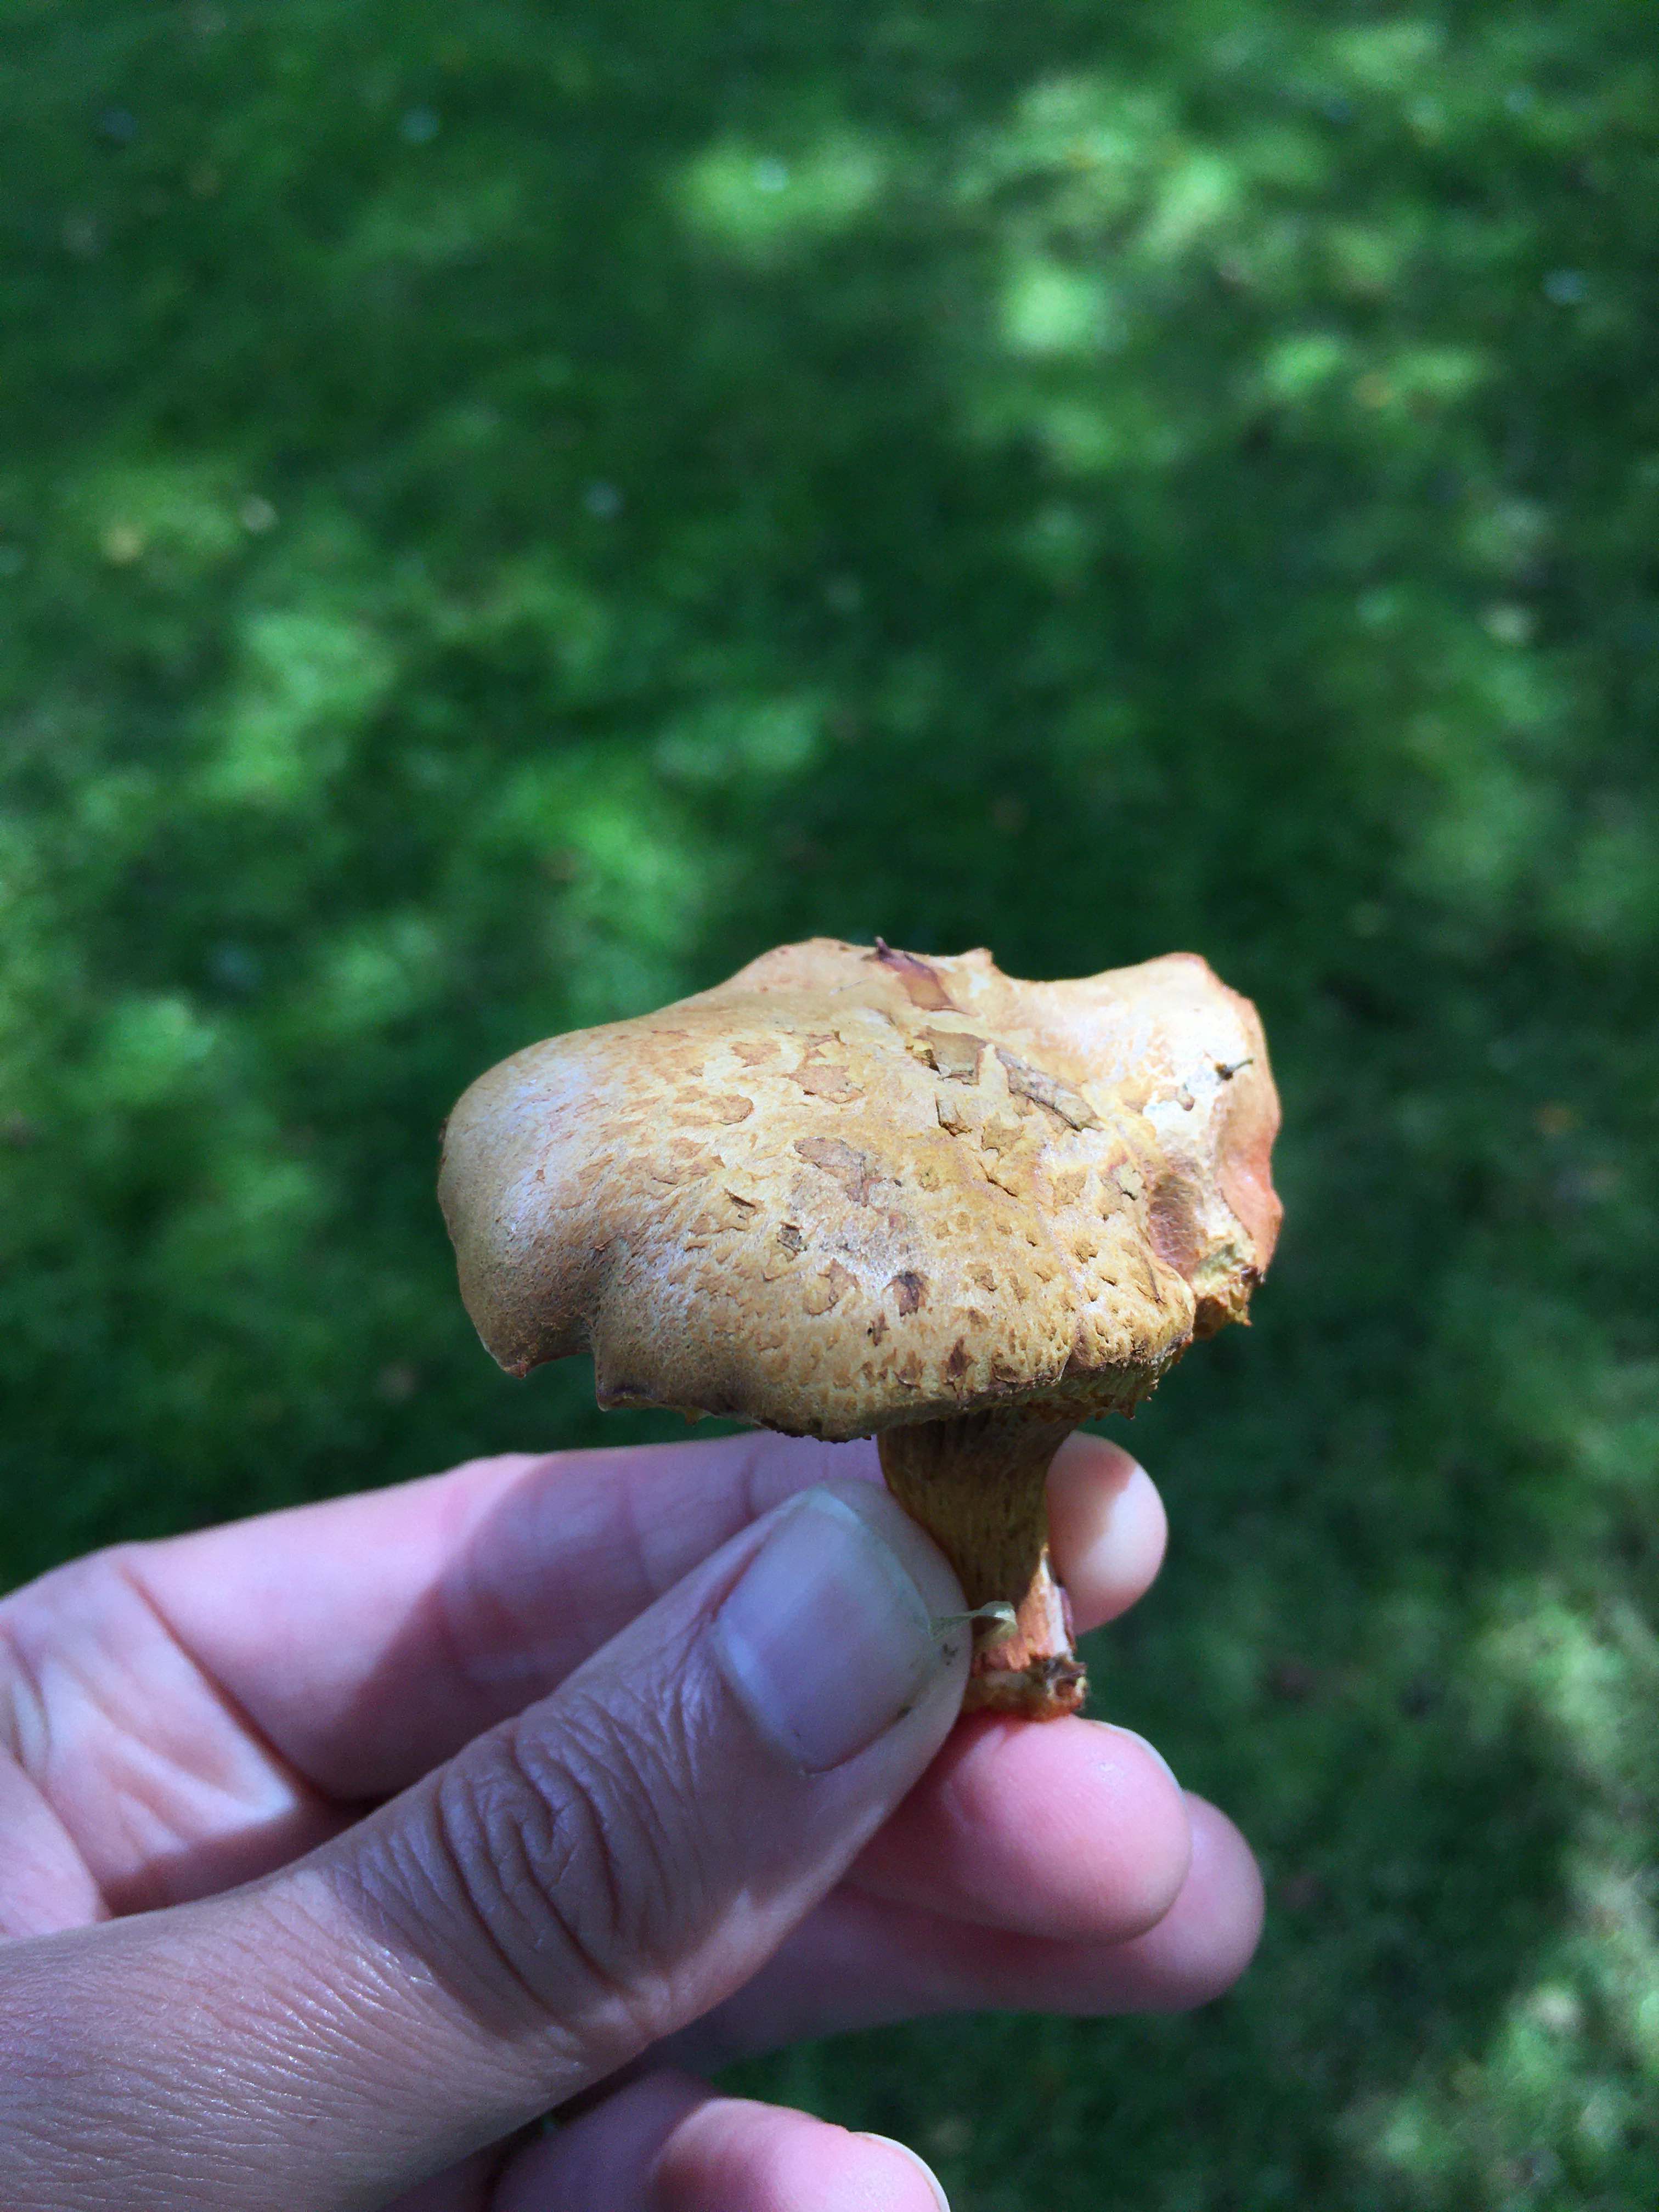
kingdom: Fungi
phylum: Basidiomycota
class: Agaricomycetes
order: Boletales
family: Boletaceae
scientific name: Boletaceae
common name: rørhatfamilien
